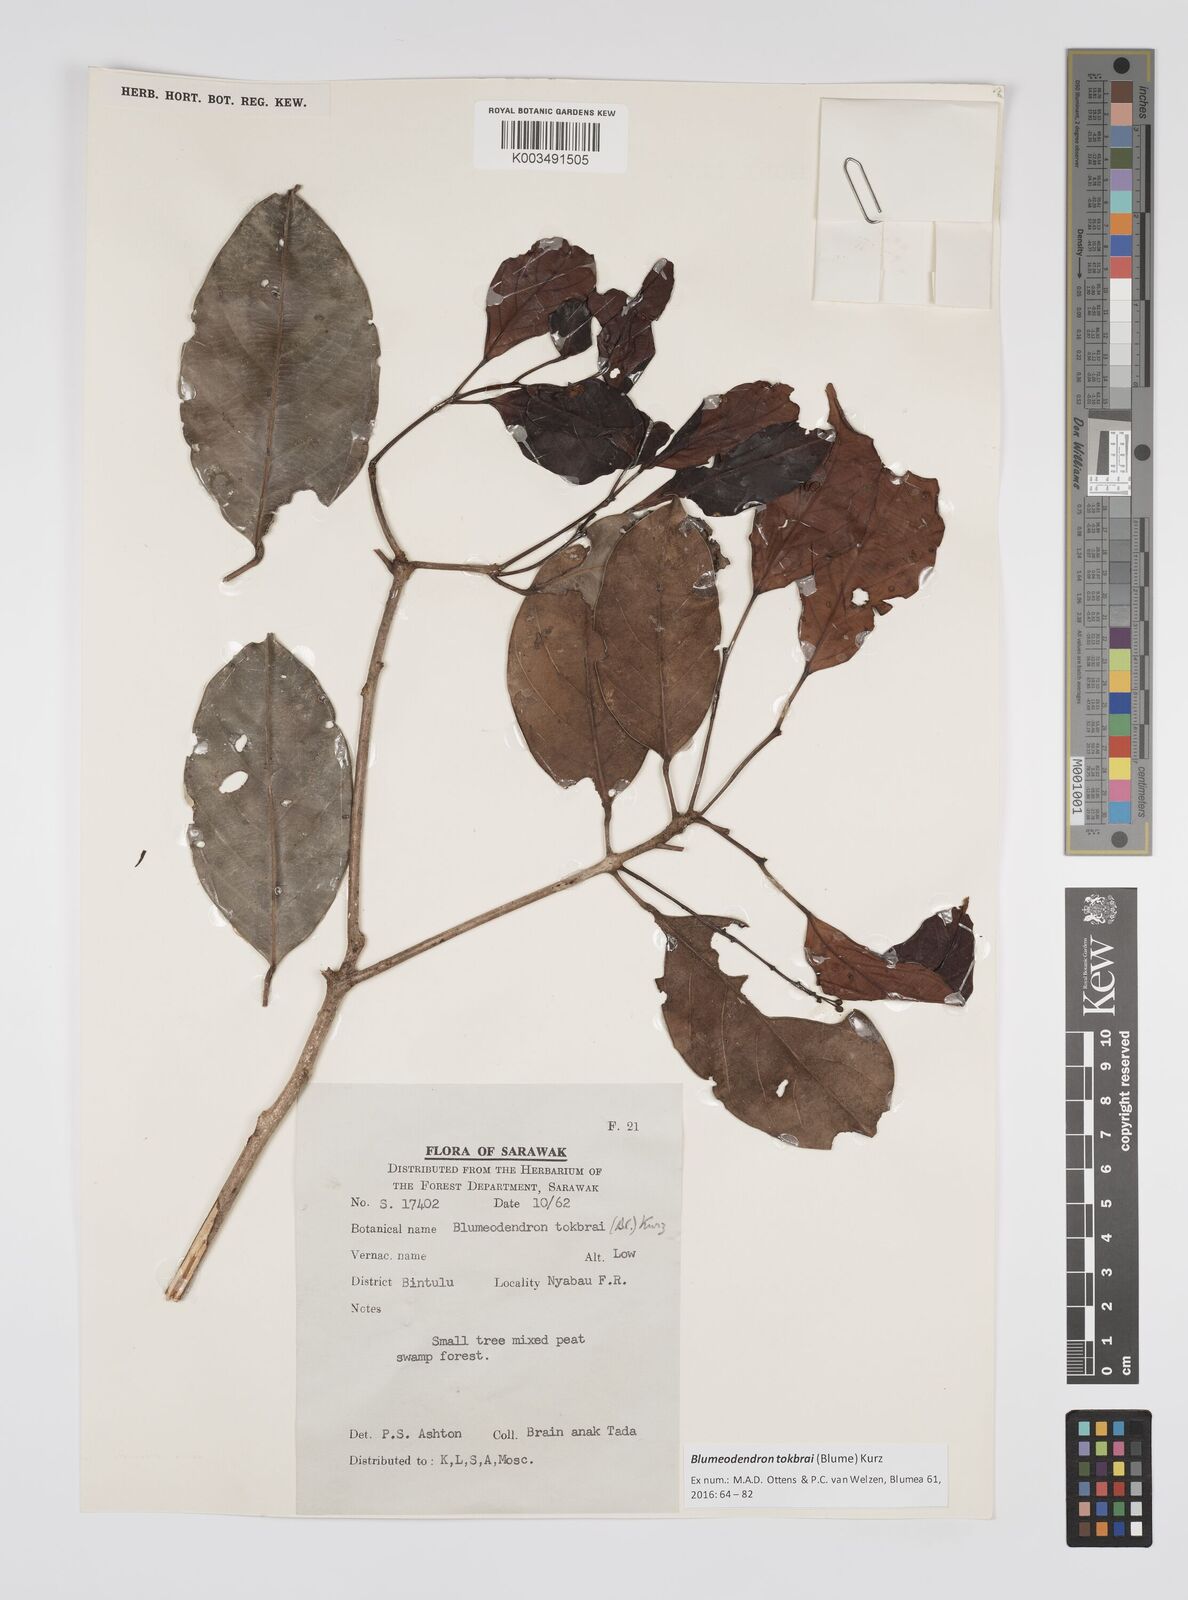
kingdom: Plantae
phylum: Tracheophyta
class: Magnoliopsida
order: Malpighiales
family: Euphorbiaceae
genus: Blumeodendron
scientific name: Blumeodendron tokbrai
